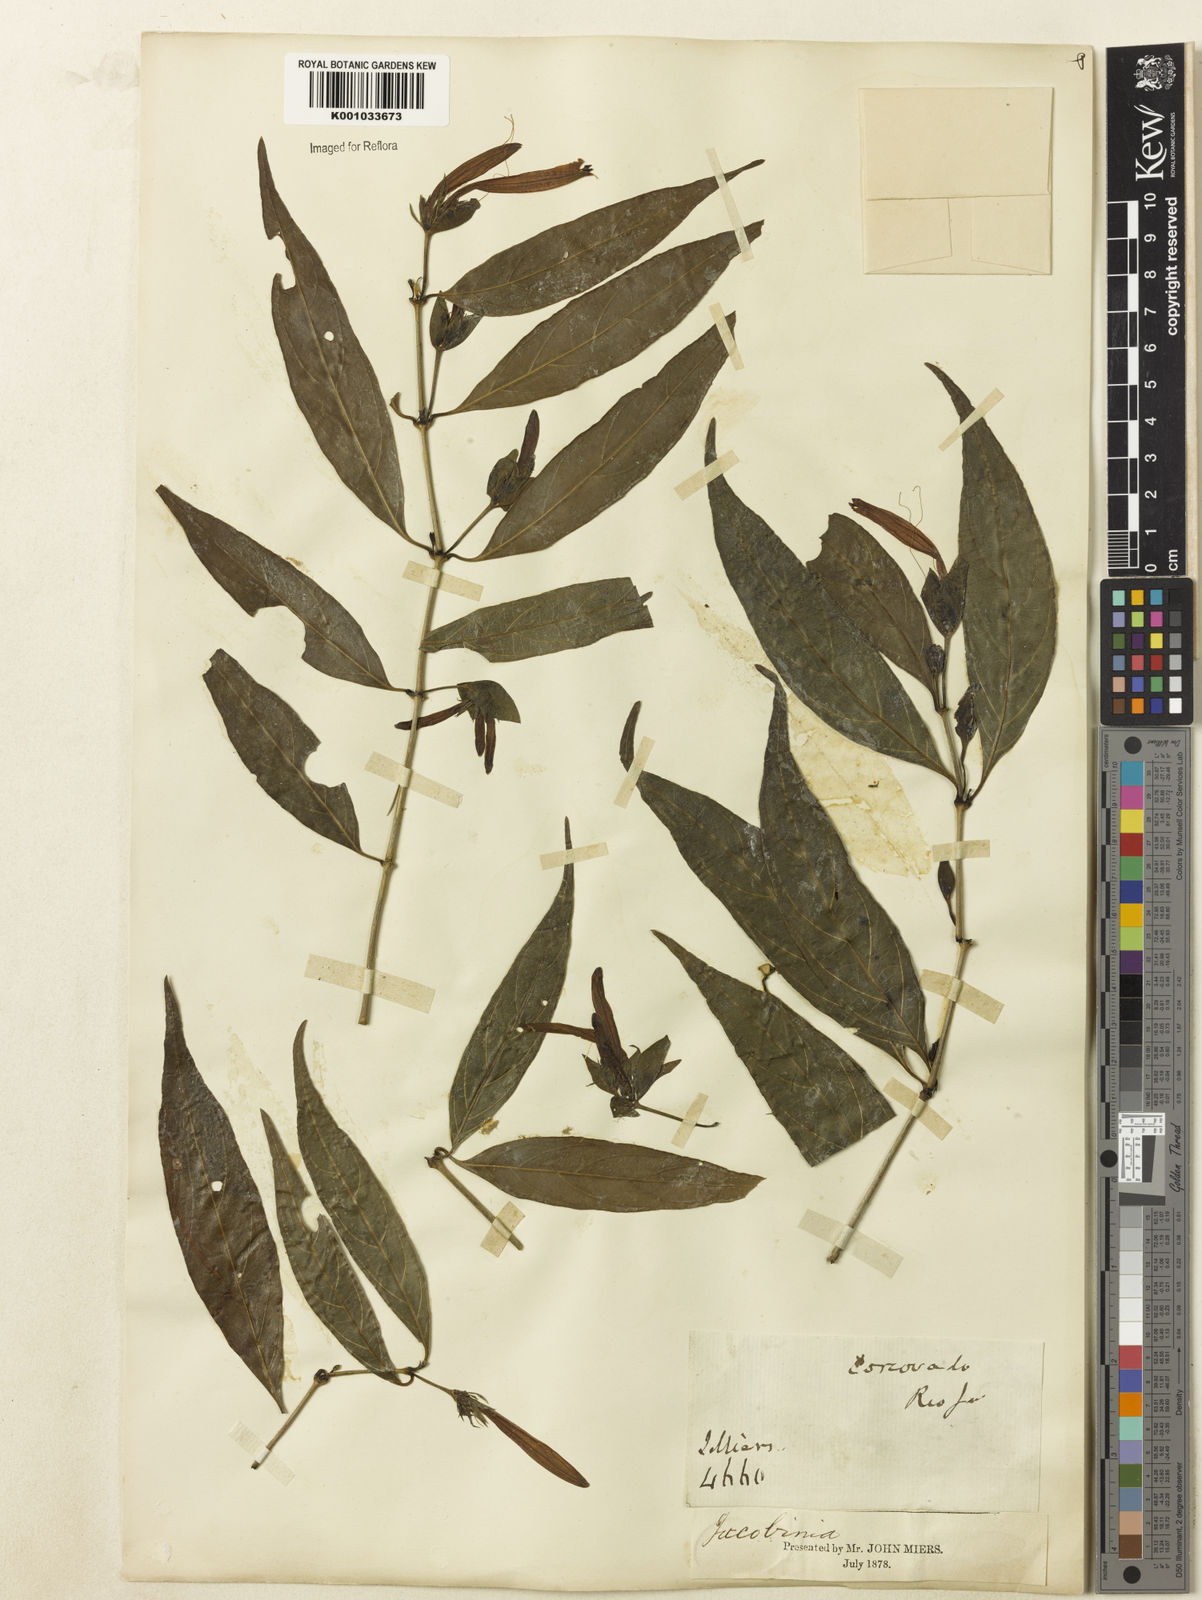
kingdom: Plantae
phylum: Tracheophyta
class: Magnoliopsida
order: Lamiales
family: Acanthaceae
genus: Justicia
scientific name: Justicia
